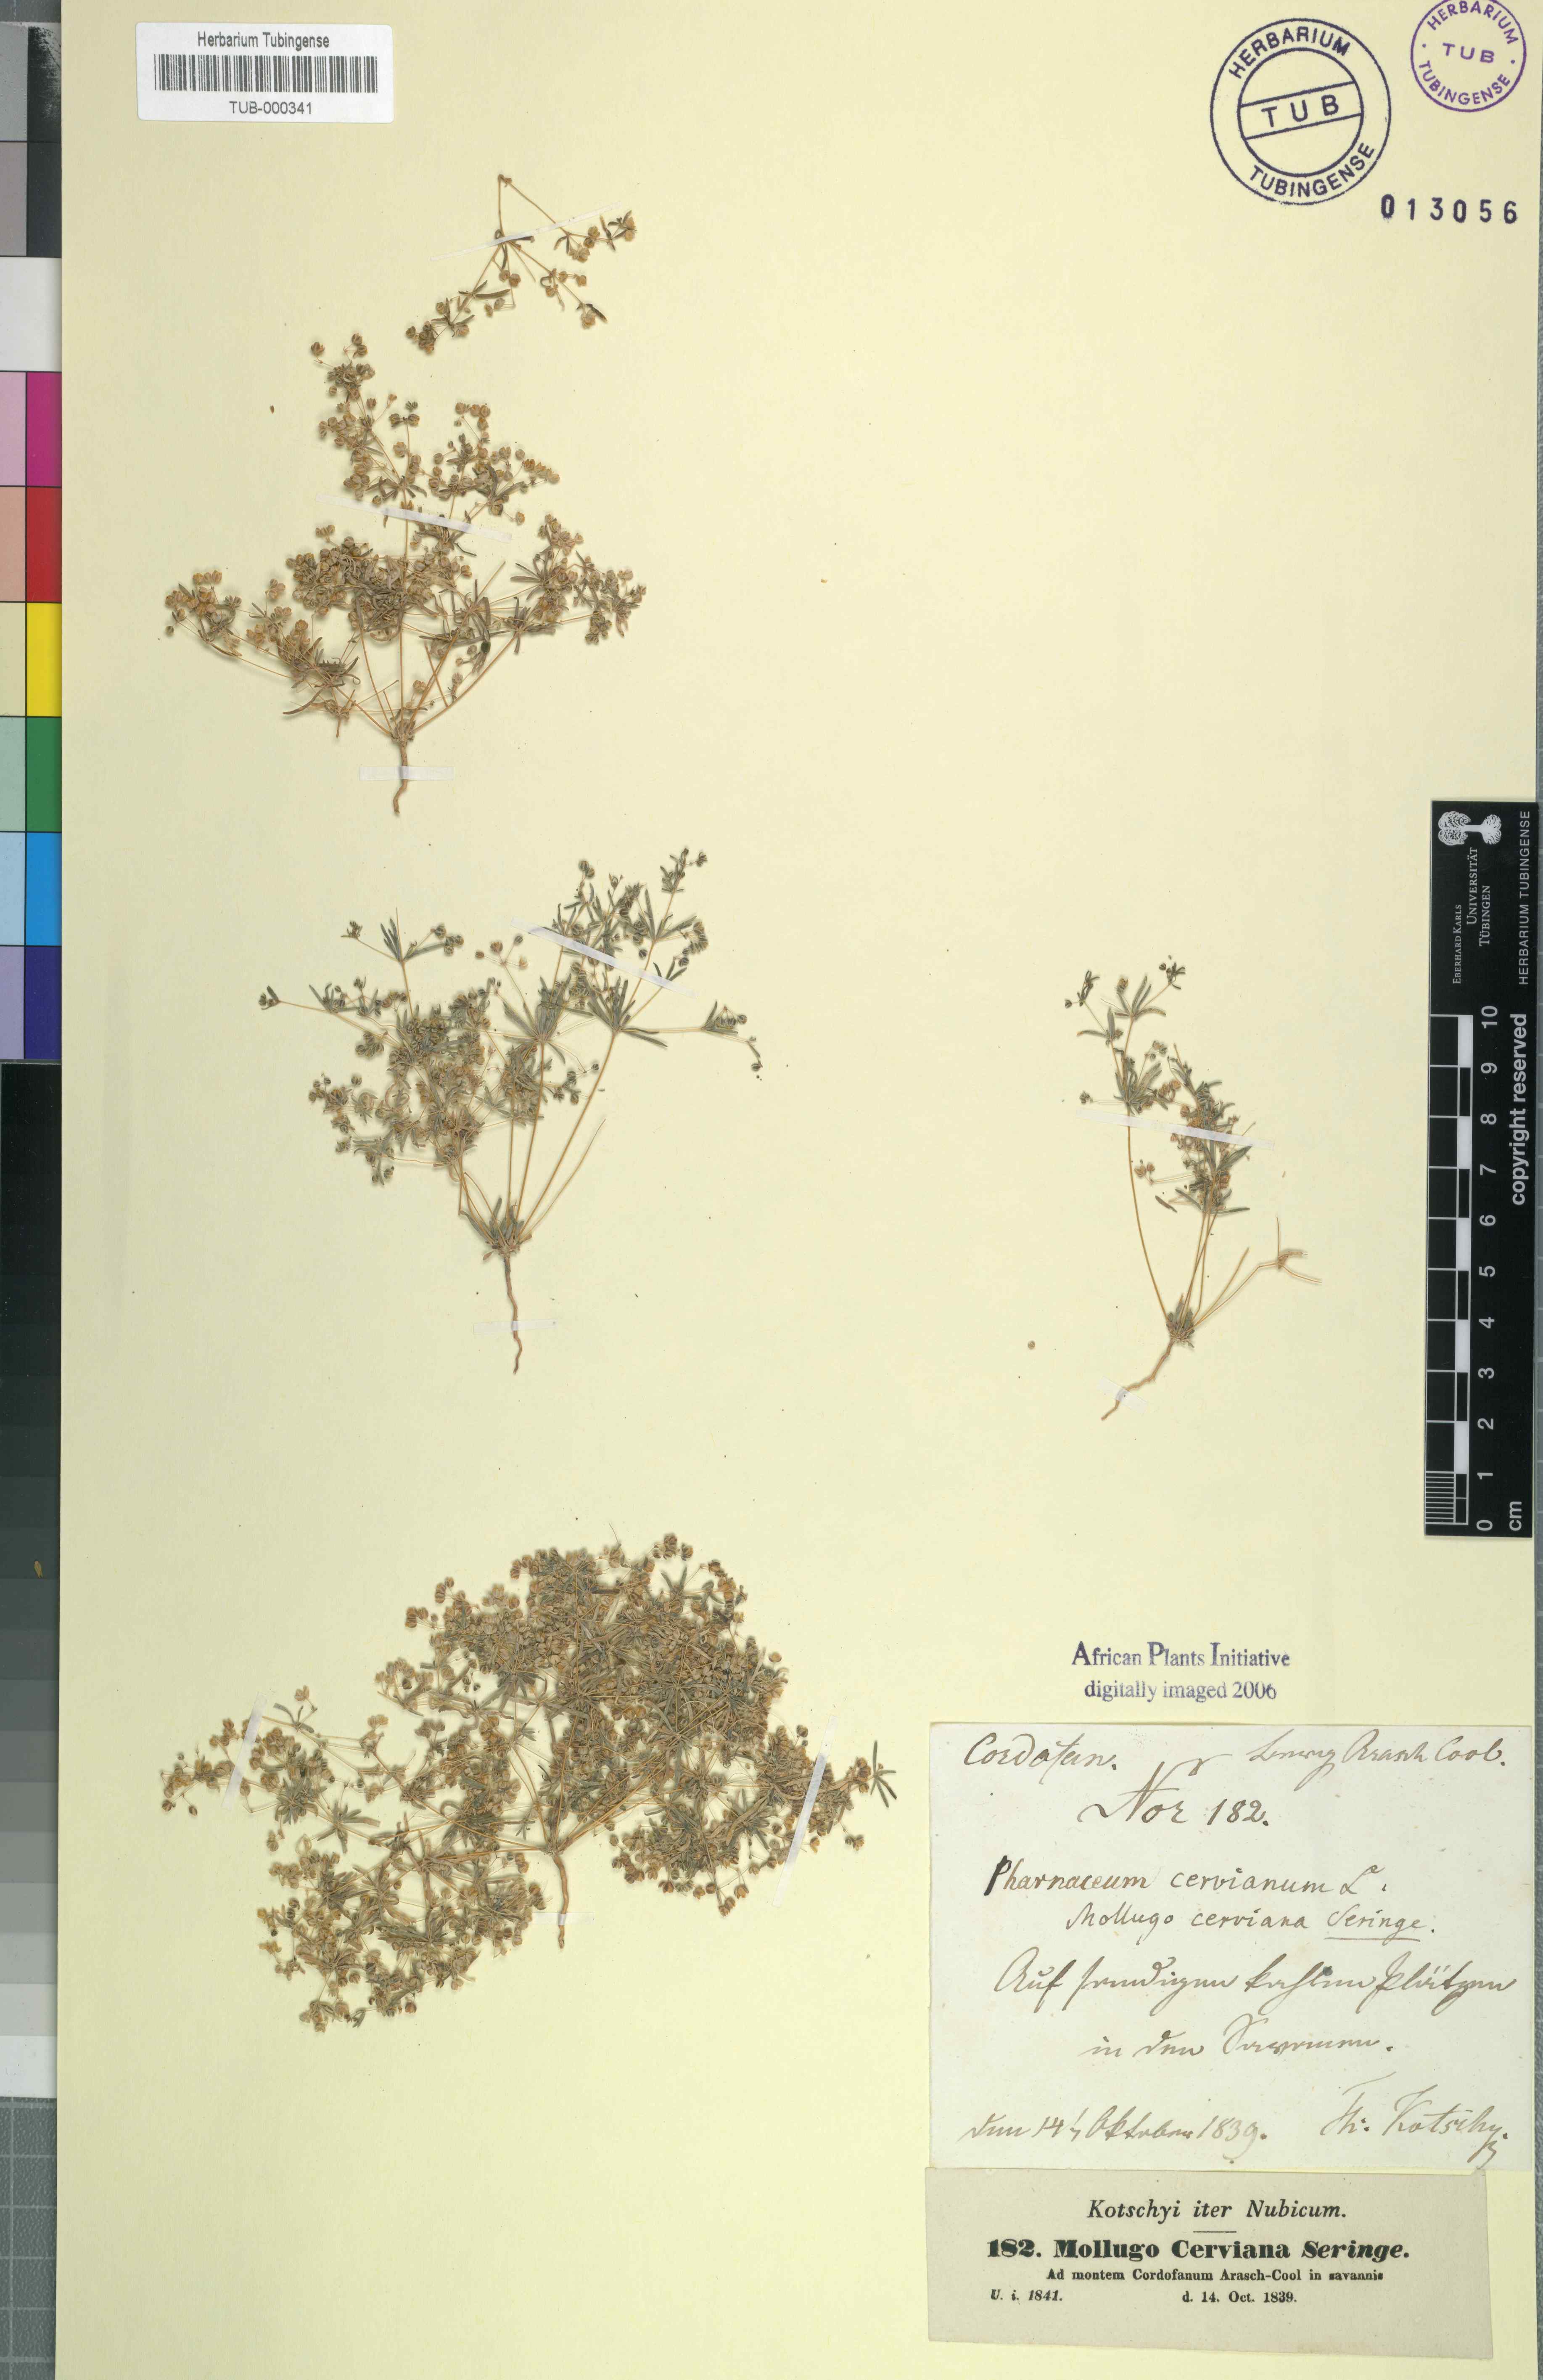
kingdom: Plantae
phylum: Tracheophyta
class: Magnoliopsida
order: Caryophyllales
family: Molluginaceae
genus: Hypertelis
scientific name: Hypertelis cerviana
